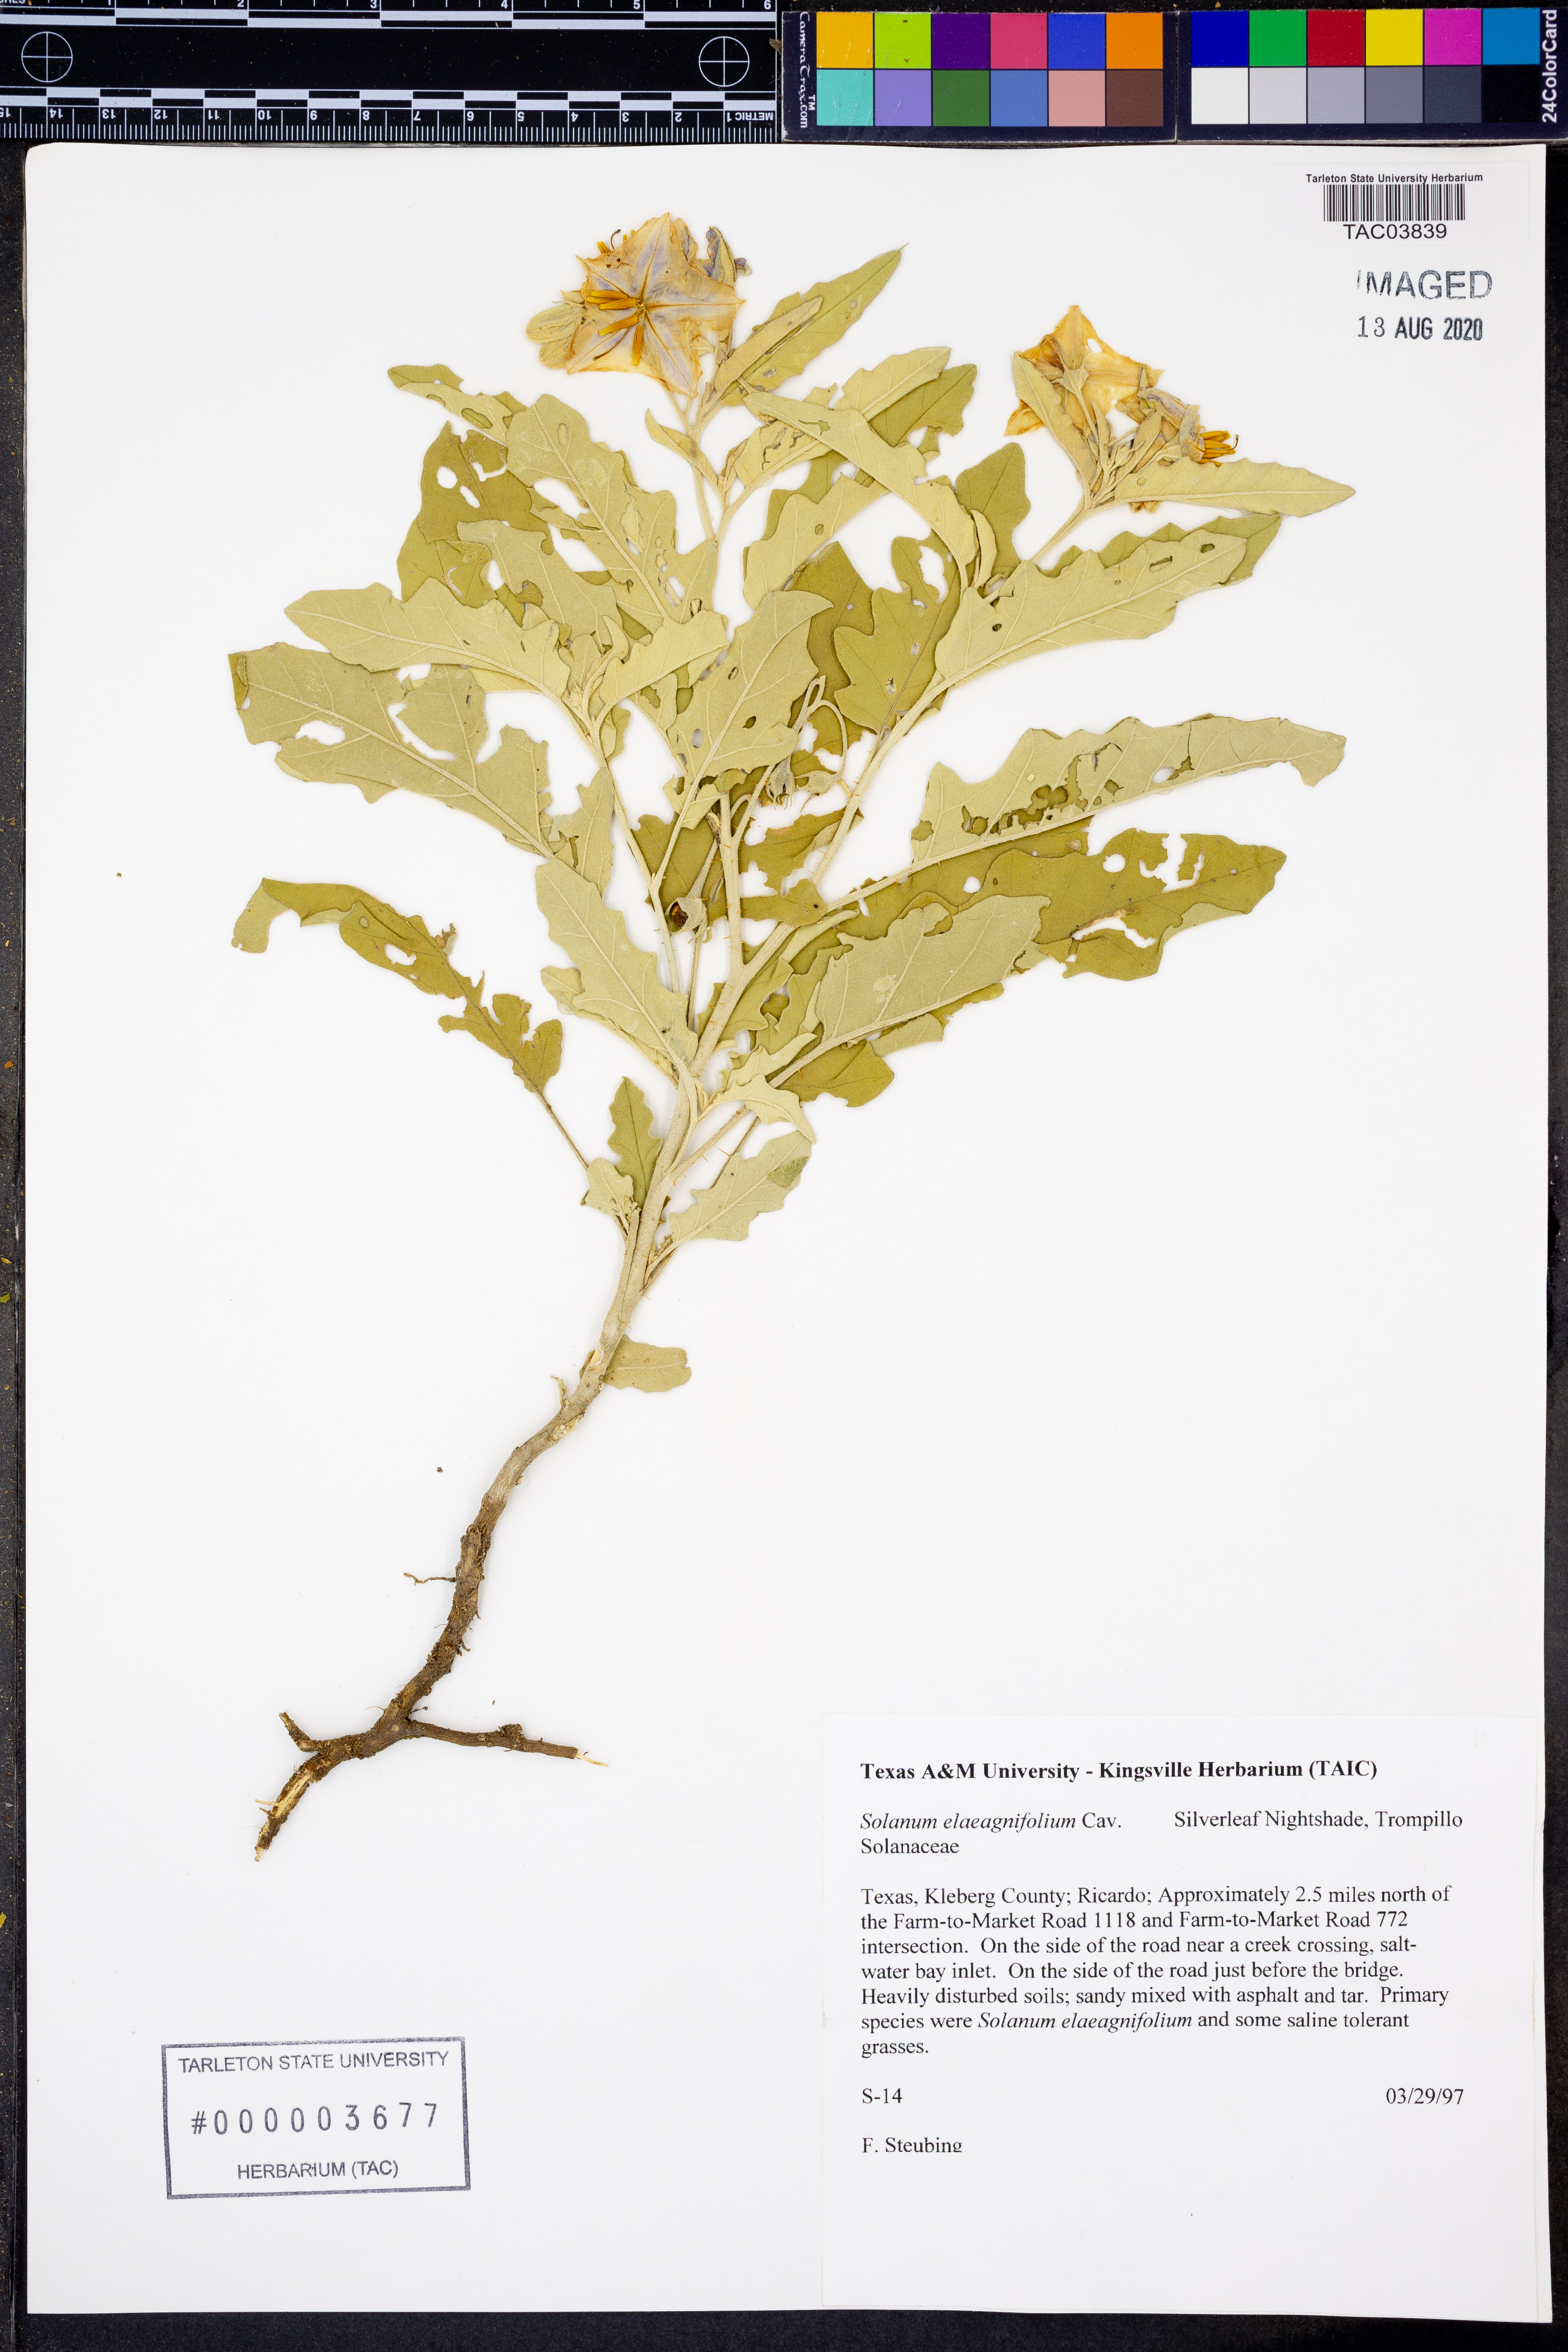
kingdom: Plantae
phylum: Tracheophyta
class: Magnoliopsida
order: Solanales
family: Solanaceae
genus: Solanum
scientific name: Solanum elaeagnifolium
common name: Silverleaf nightshade
